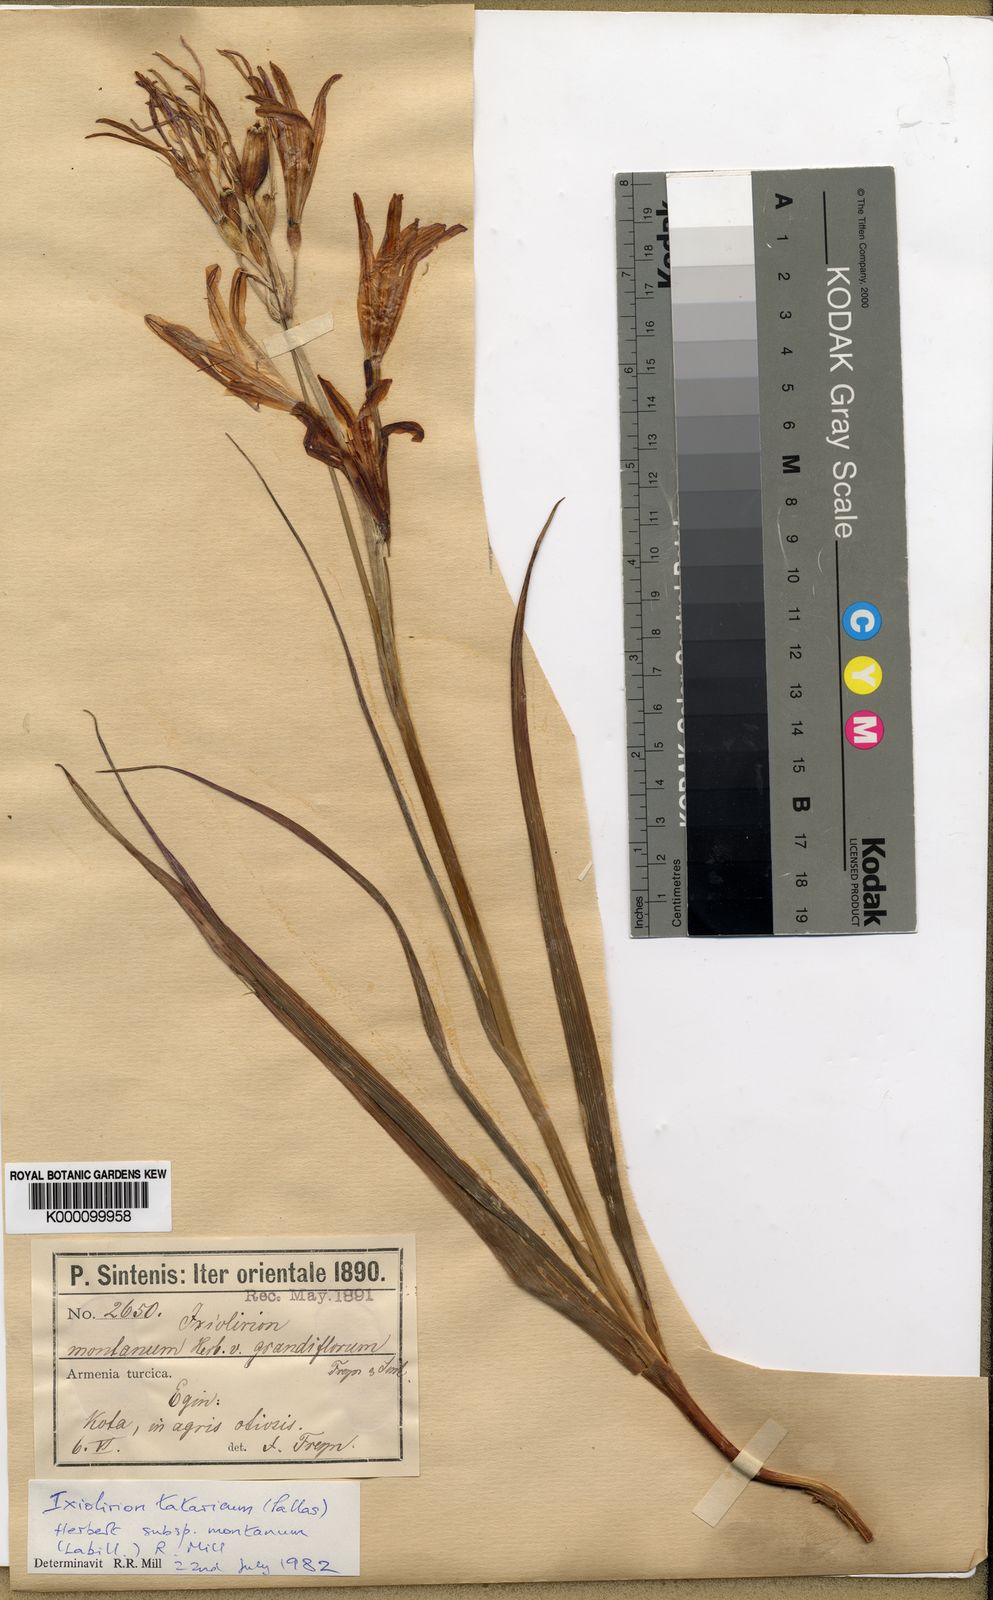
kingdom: Plantae
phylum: Tracheophyta
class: Liliopsida
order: Asparagales
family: Ixioliriaceae
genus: Ixiolirion
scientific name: Ixiolirion tataricum
